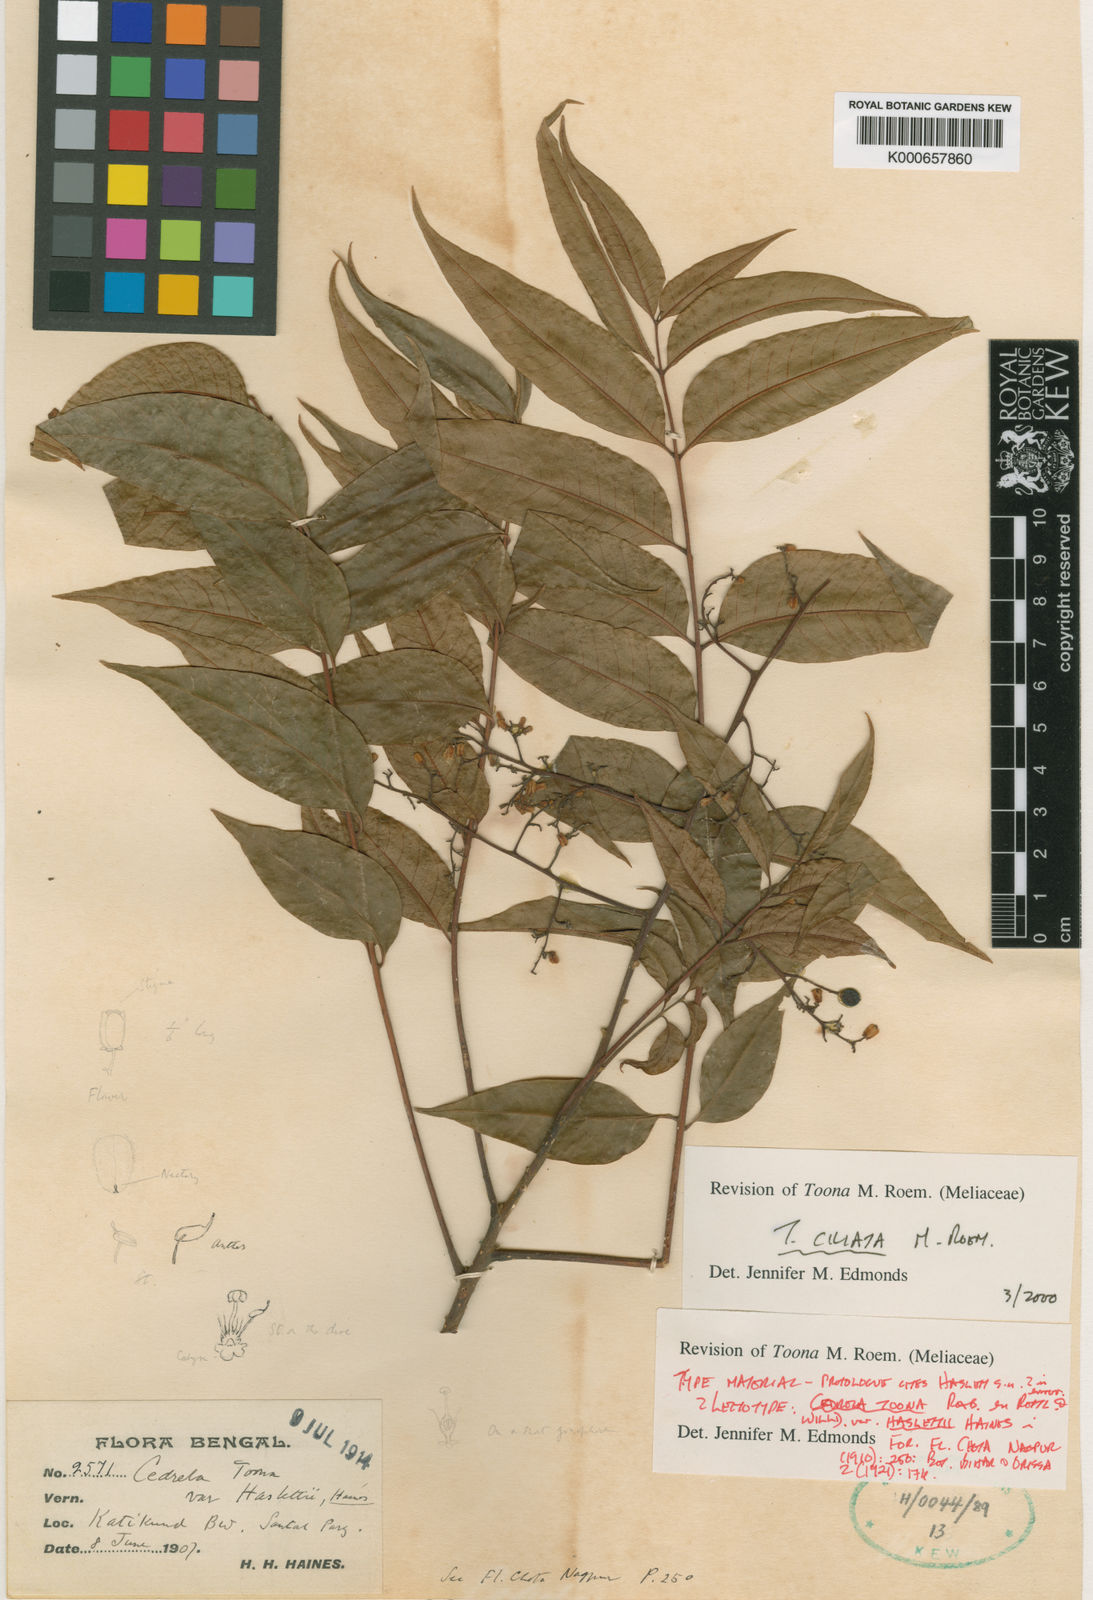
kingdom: Plantae
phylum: Tracheophyta
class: Magnoliopsida
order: Sapindales
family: Meliaceae
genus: Toona
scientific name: Toona ciliata
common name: Australian redcedar
